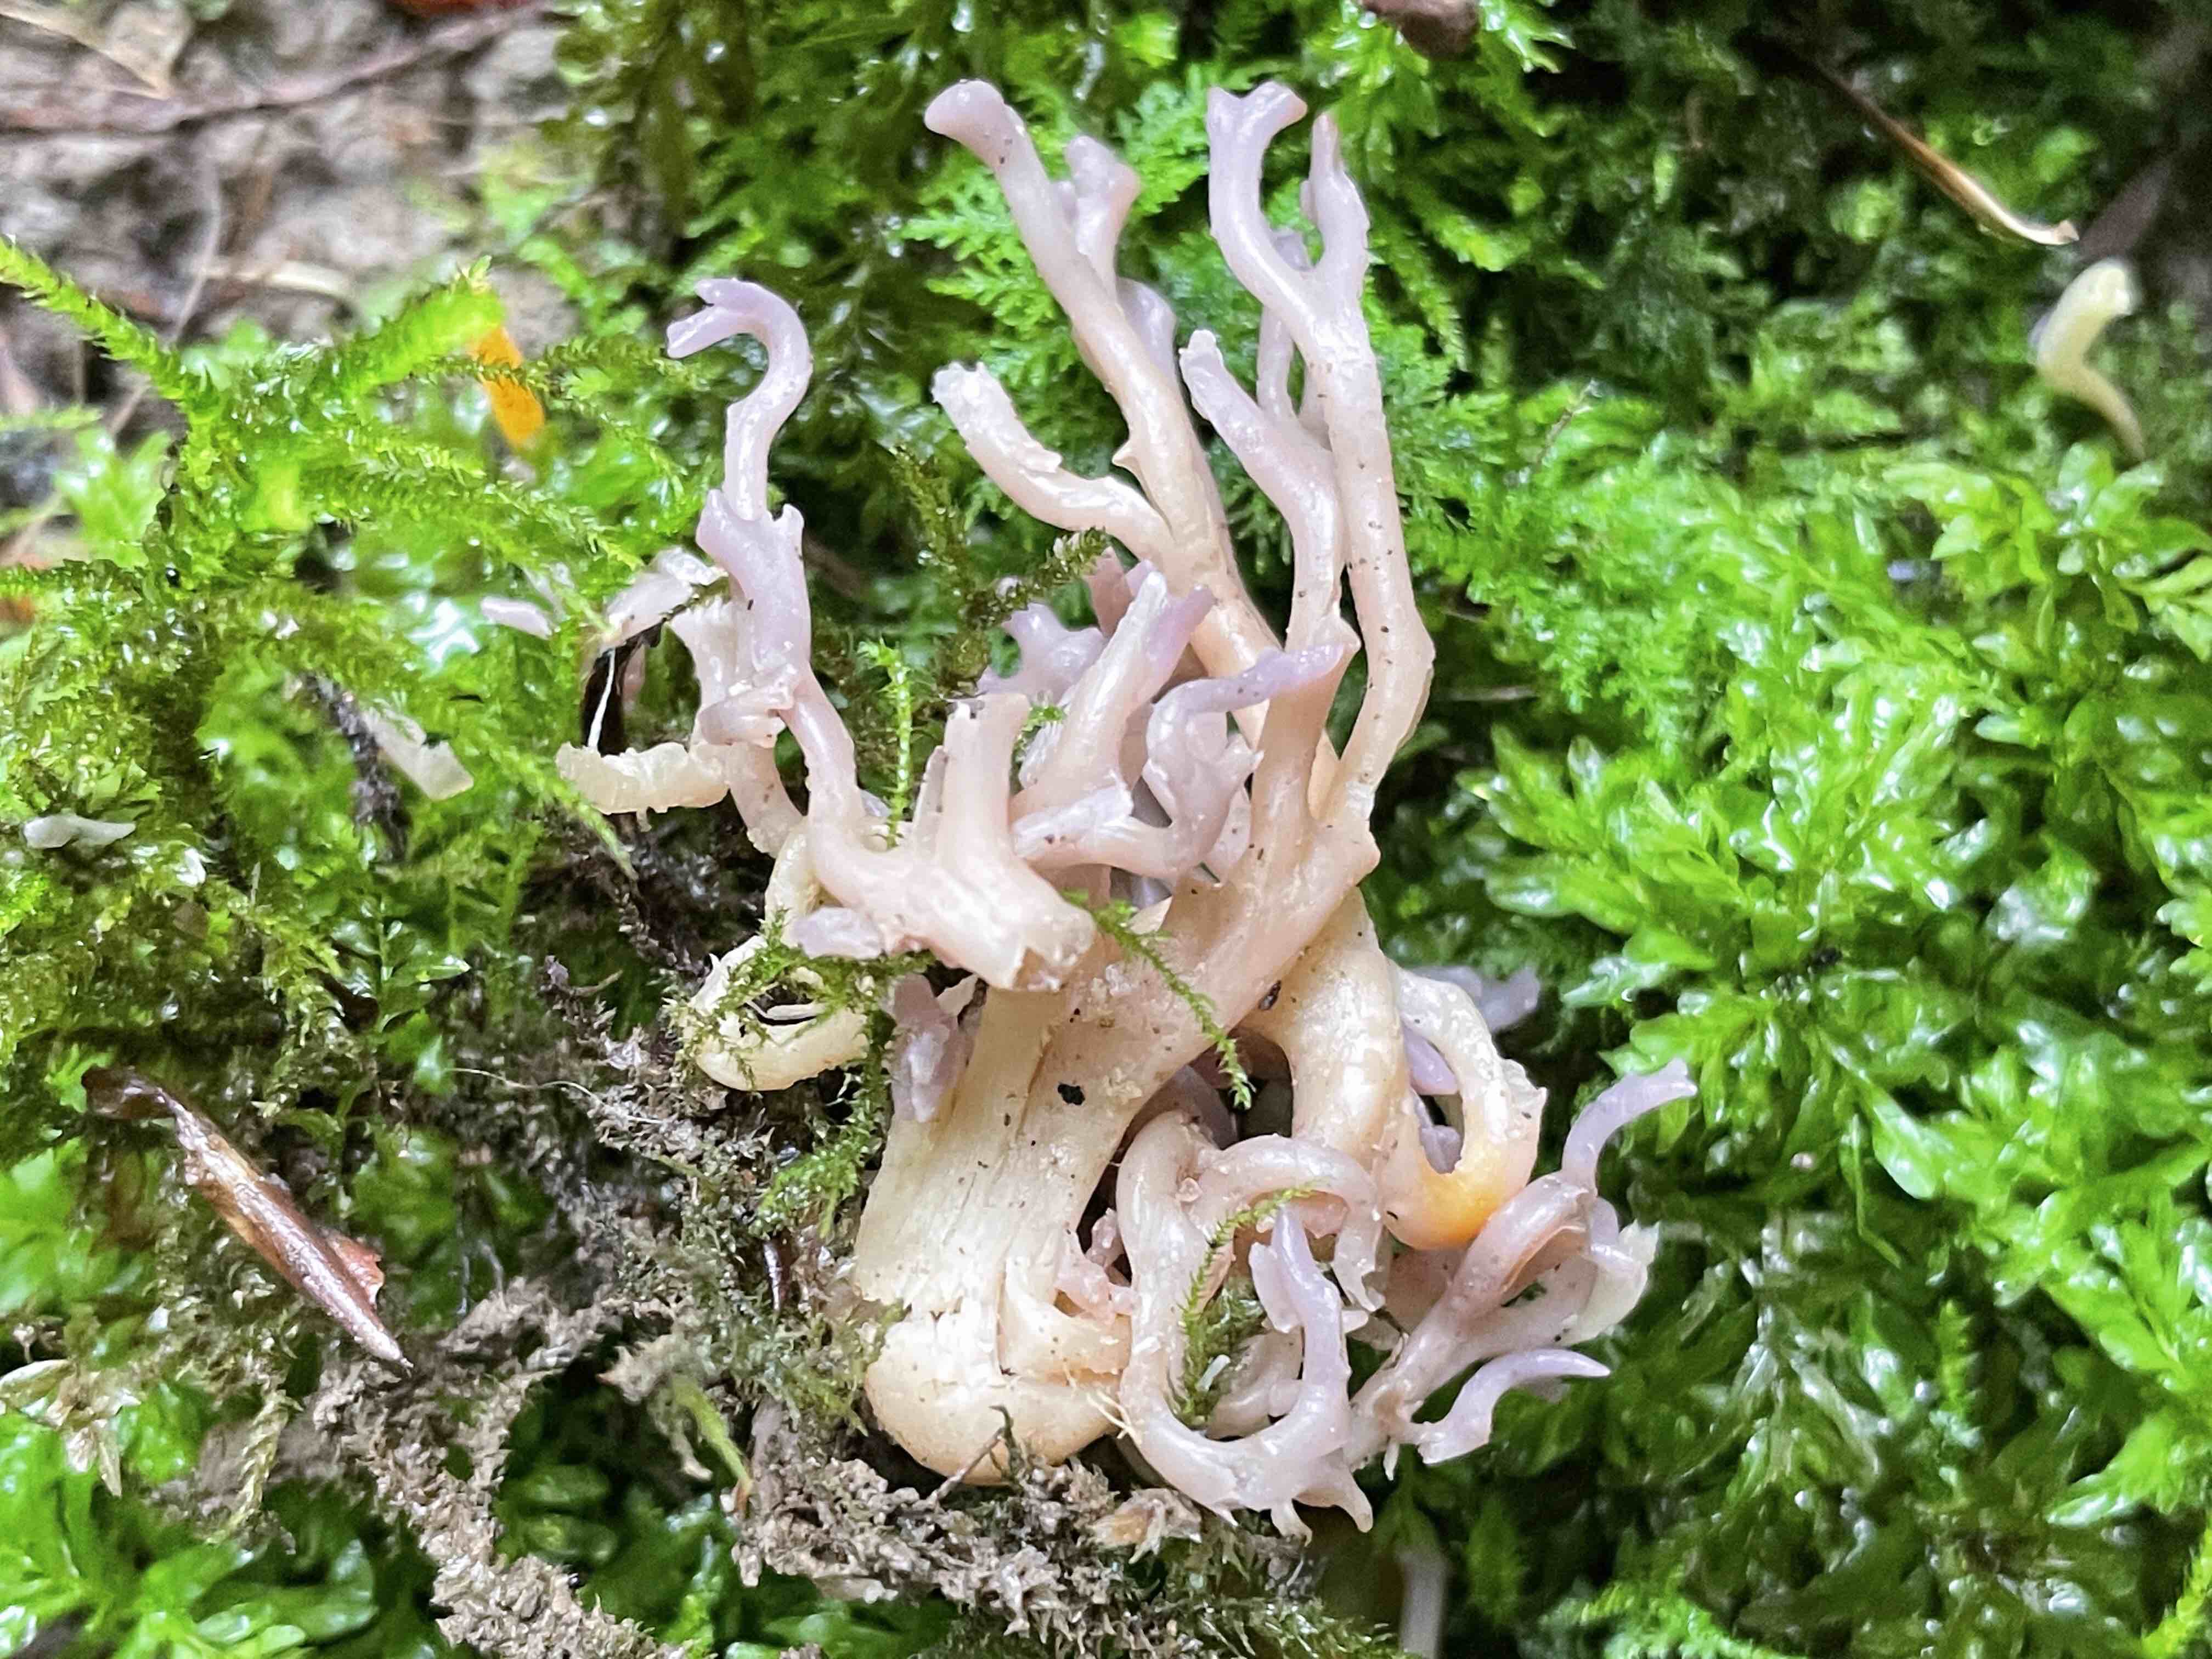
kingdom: Fungi
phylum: Basidiomycota
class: Agaricomycetes
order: Agaricales
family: Clavariaceae
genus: Clavaria
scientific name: Clavaria
